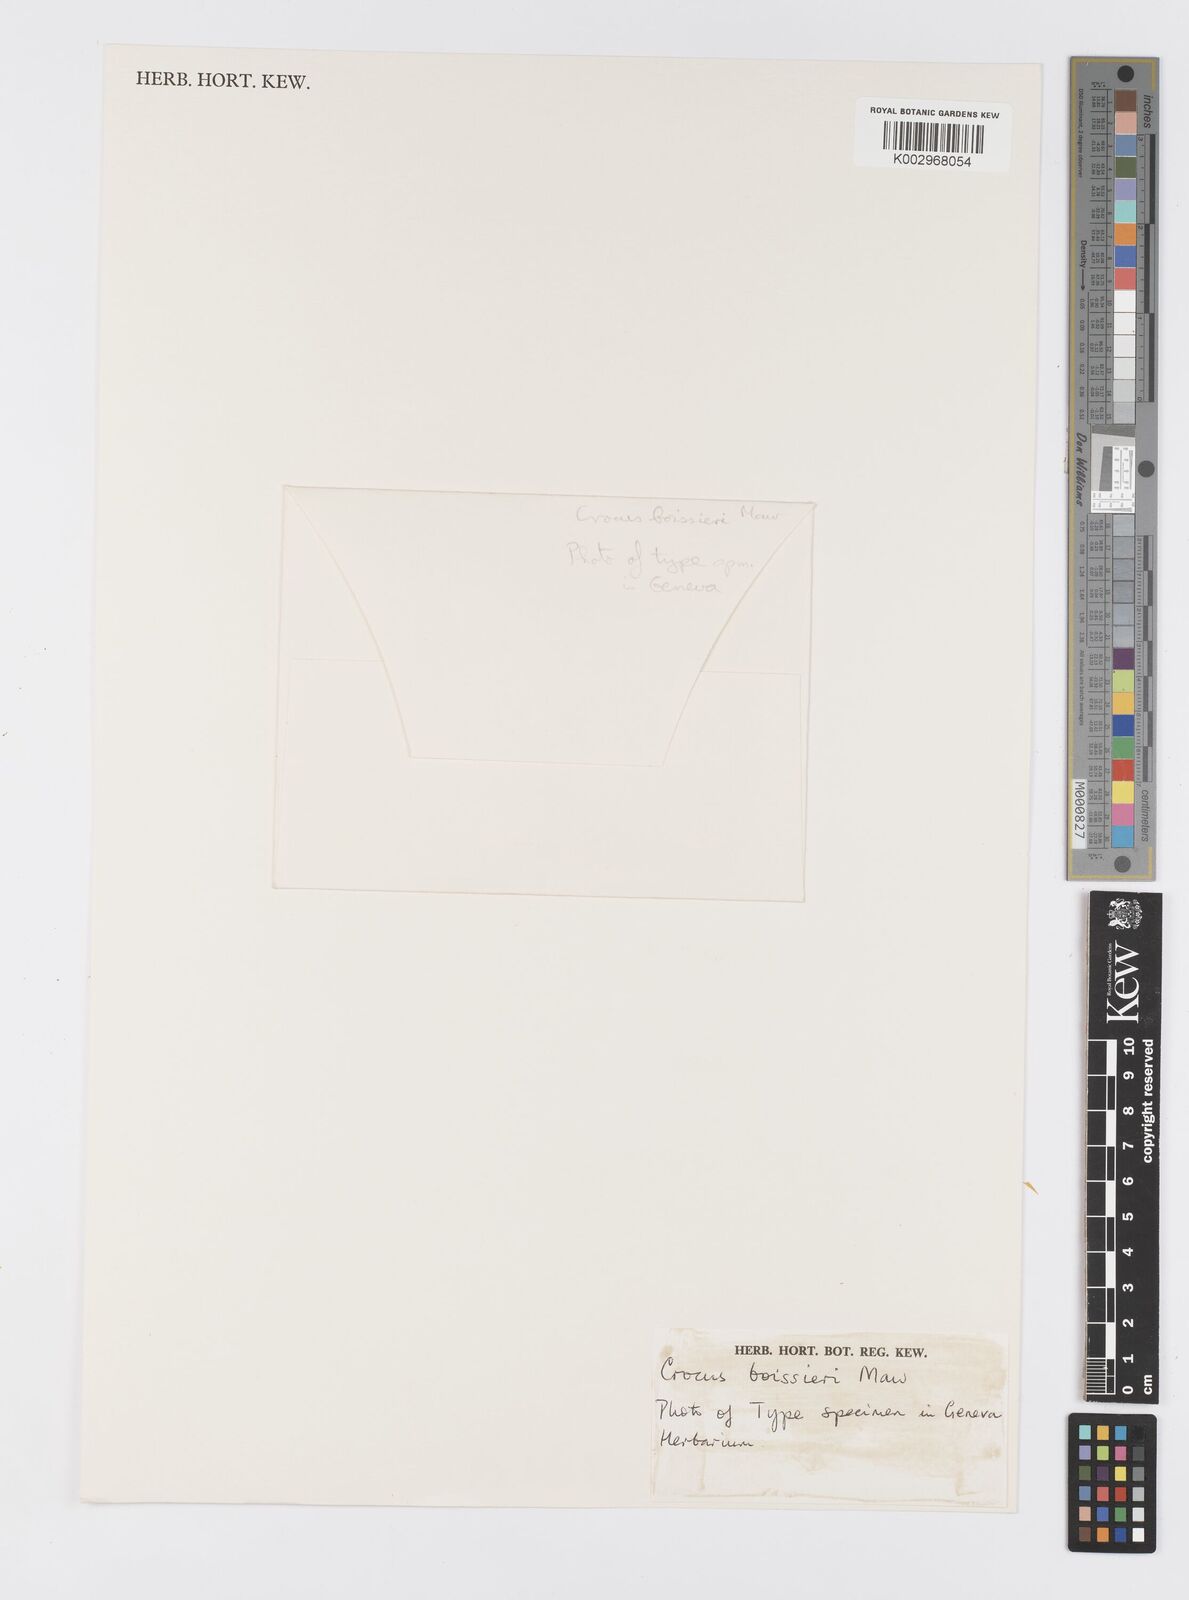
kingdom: Plantae
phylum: Tracheophyta
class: Liliopsida
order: Asparagales
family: Iridaceae
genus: Crocus
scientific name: Crocus boissieri
